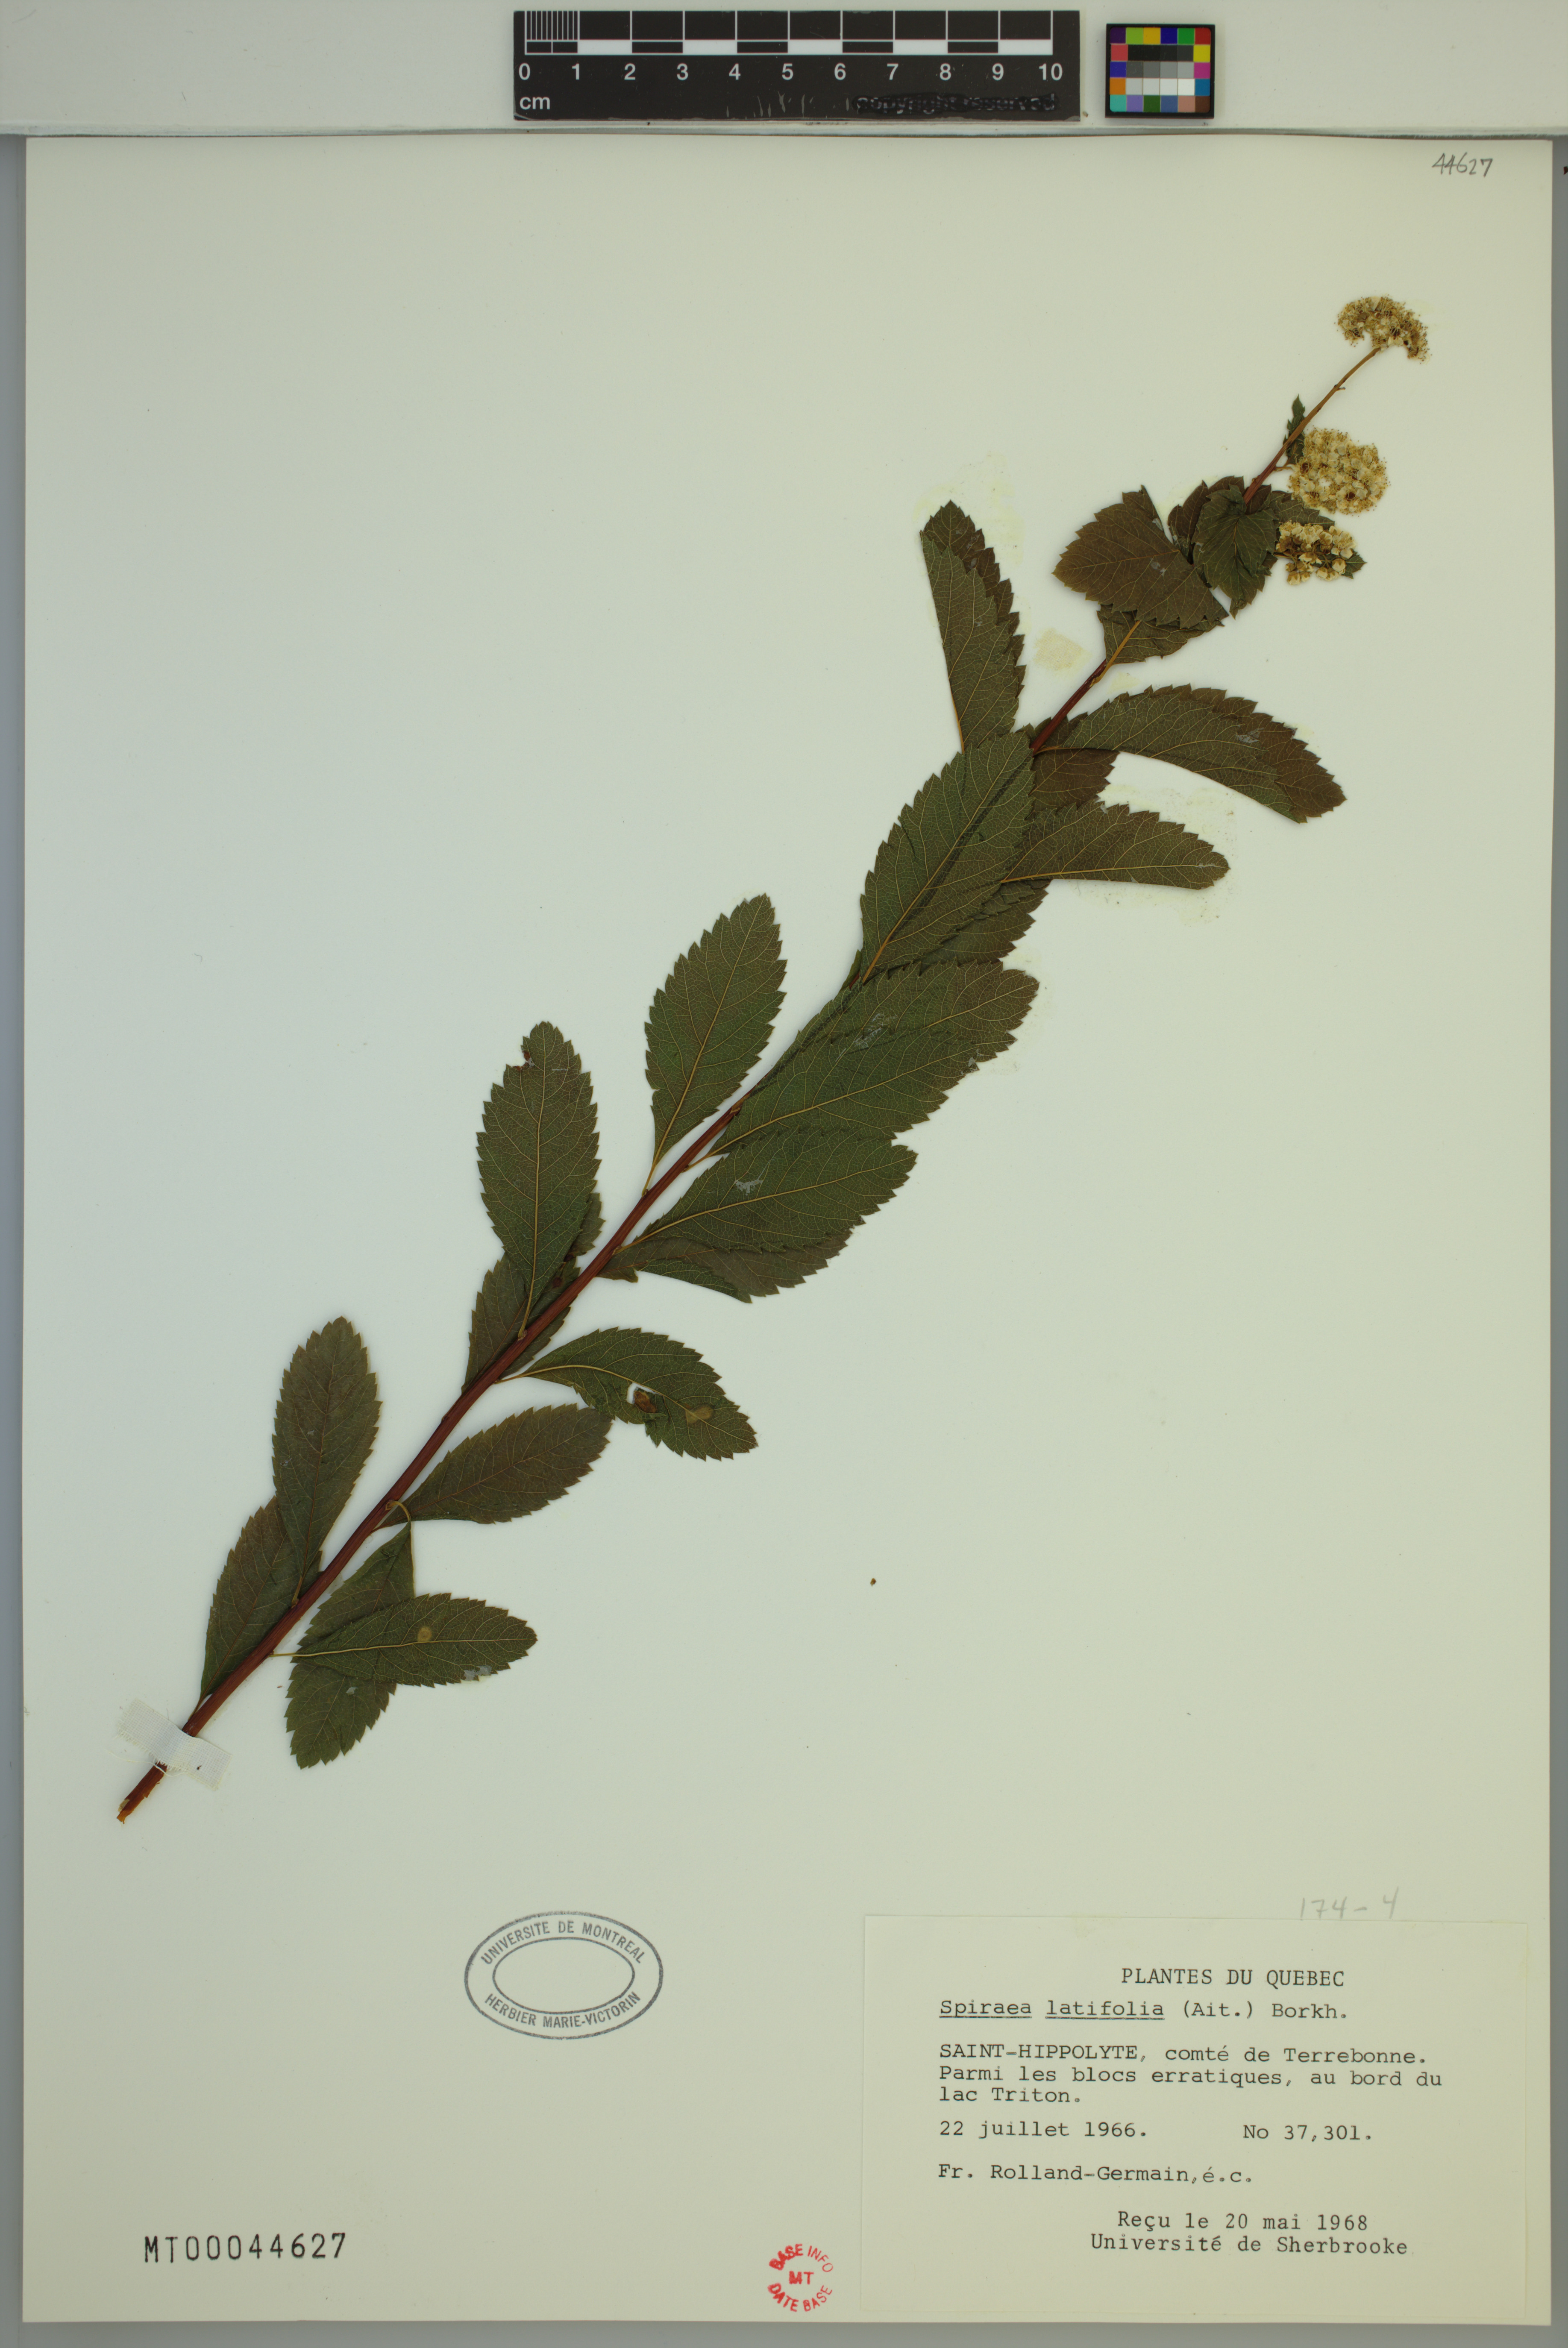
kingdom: Plantae
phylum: Tracheophyta
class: Magnoliopsida
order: Rosales
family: Rosaceae
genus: Spiraea
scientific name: Spiraea alba
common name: Pale bridewort
